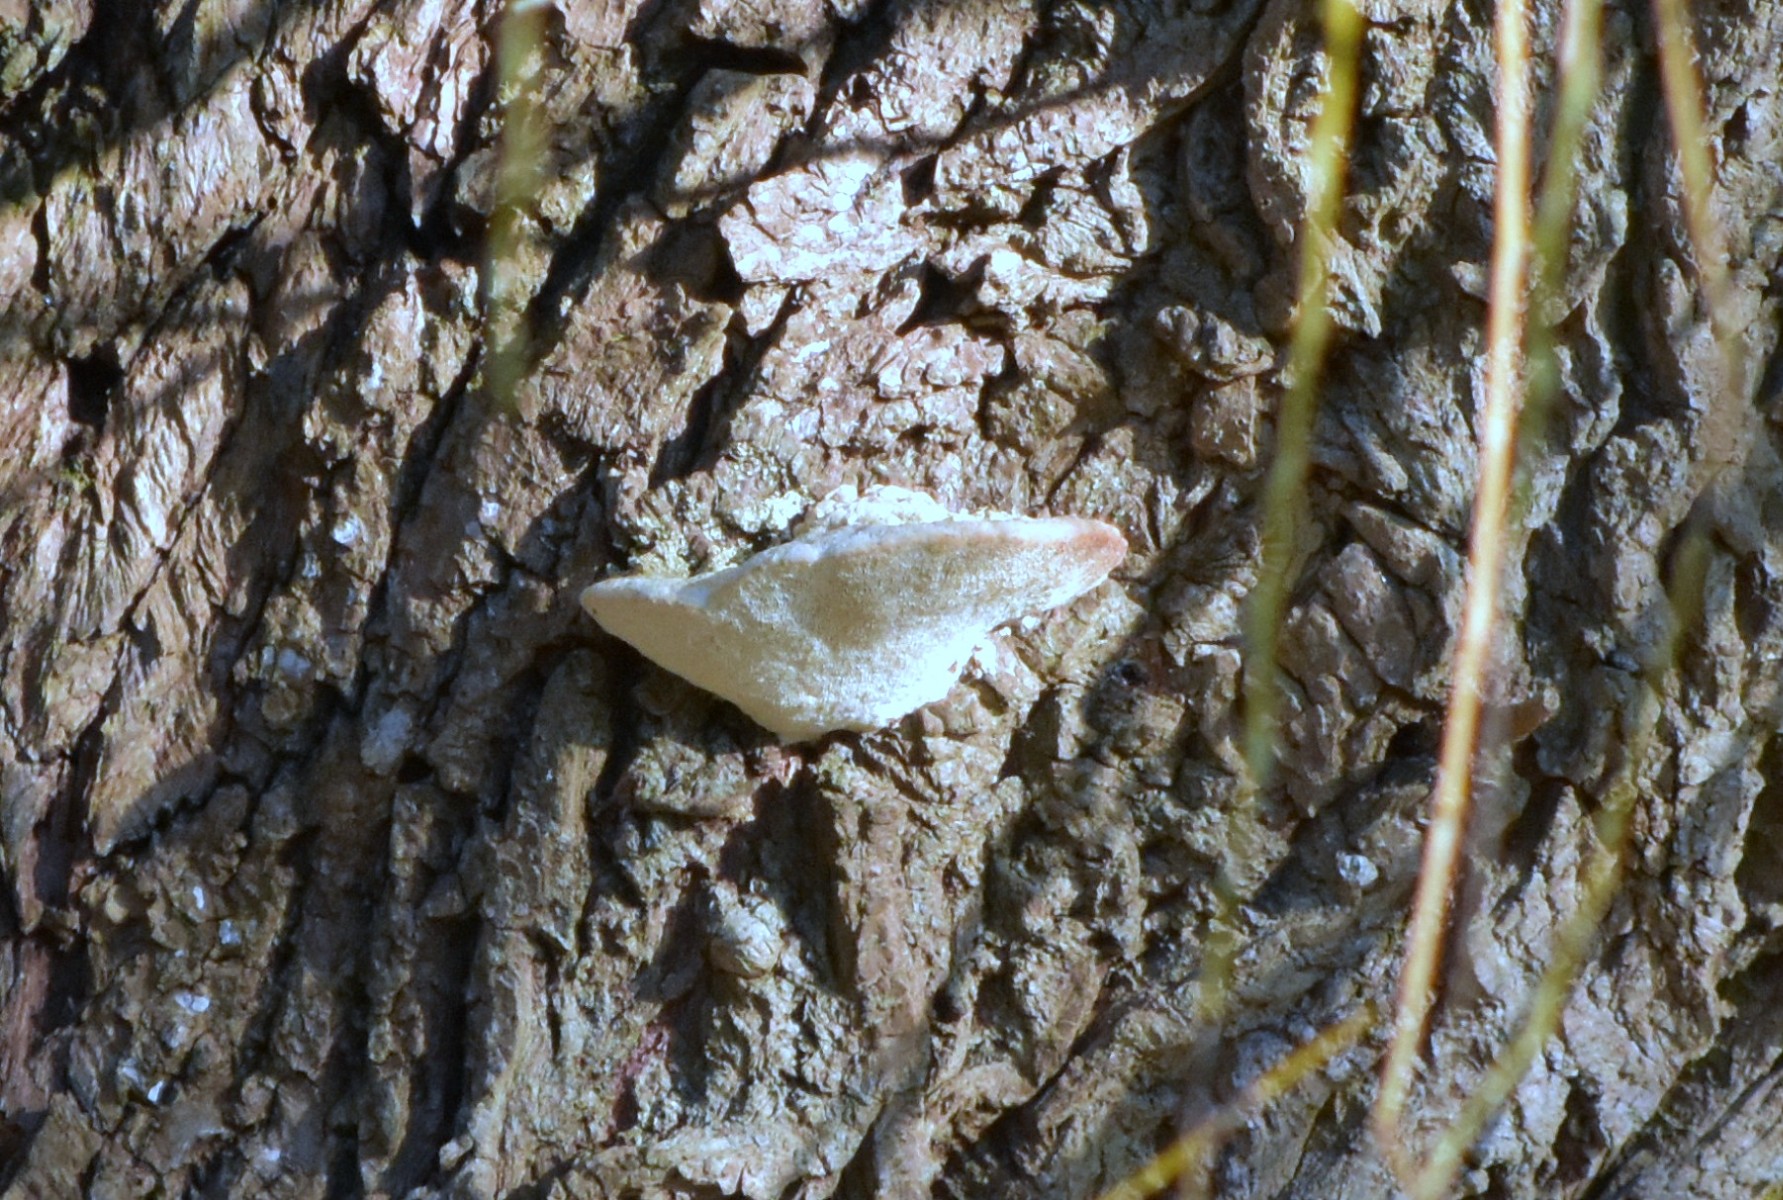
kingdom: Fungi
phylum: Basidiomycota
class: Agaricomycetes
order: Polyporales
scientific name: Polyporales
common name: poresvampordenen
